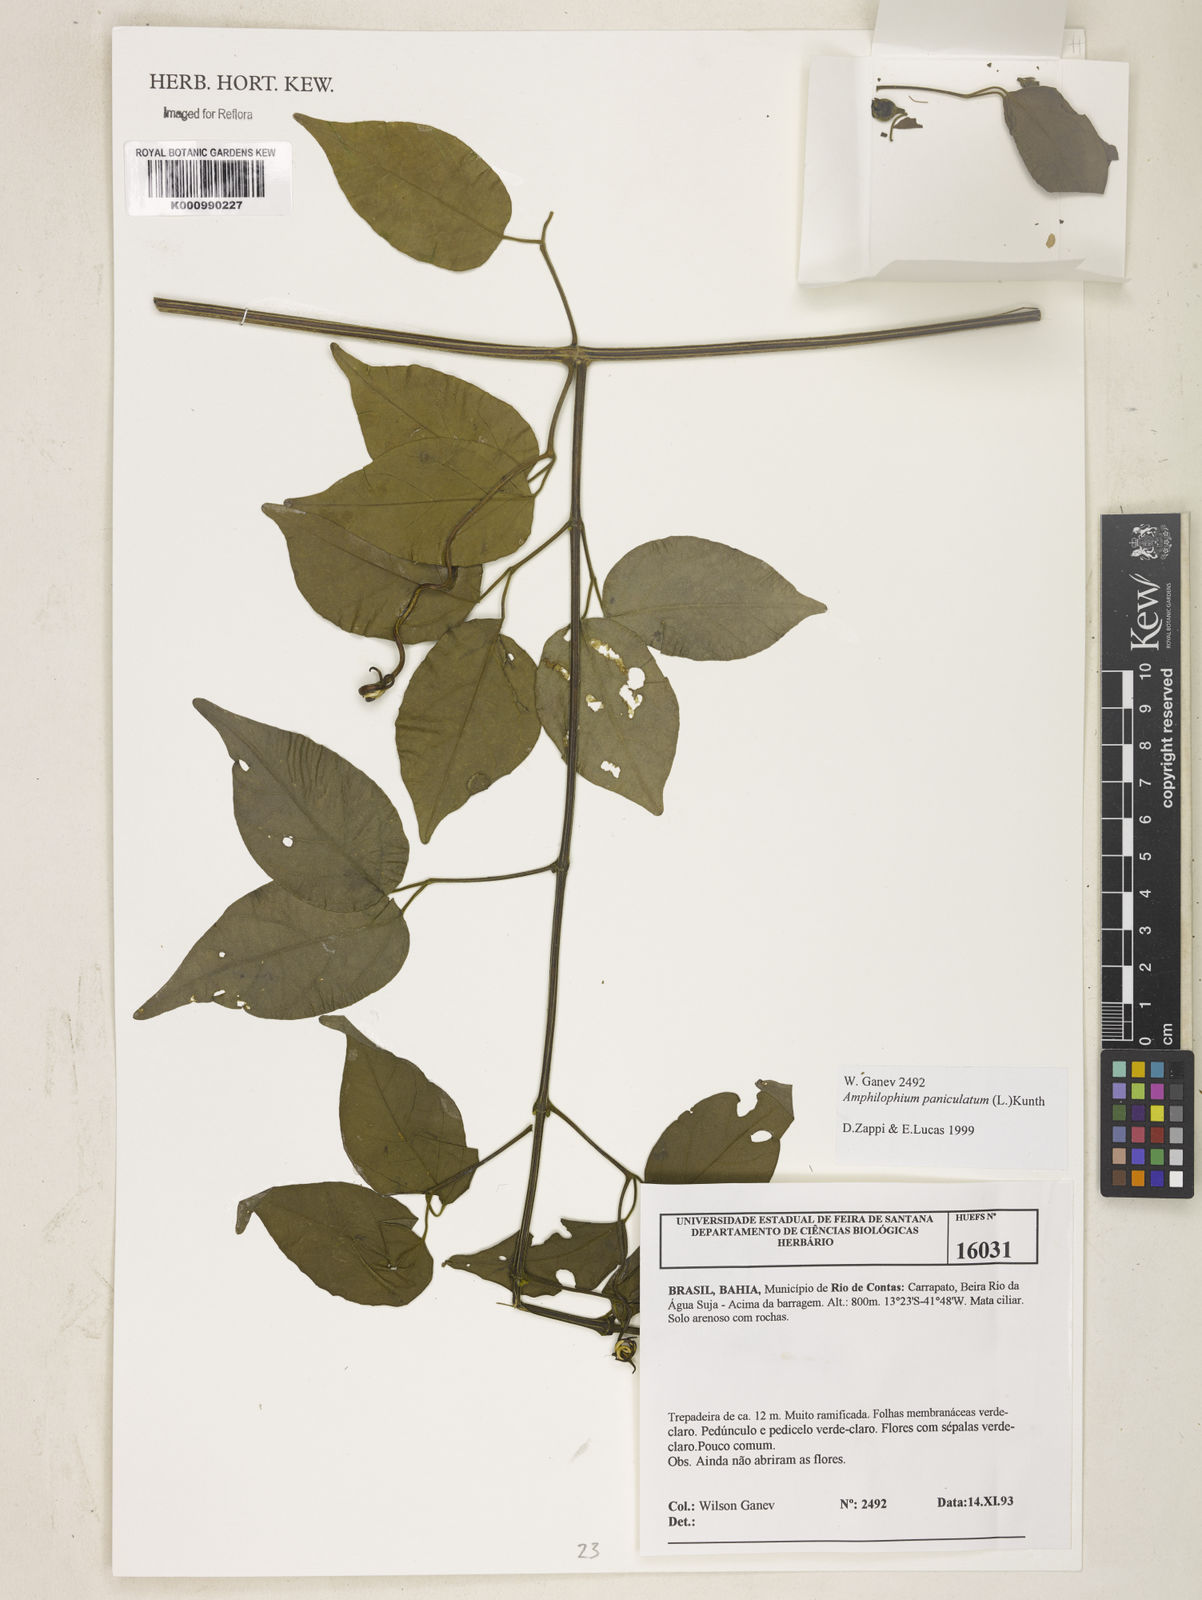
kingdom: Plantae
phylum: Tracheophyta
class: Magnoliopsida
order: Lamiales
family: Bignoniaceae
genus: Amphilophium
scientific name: Amphilophium paniculatum
